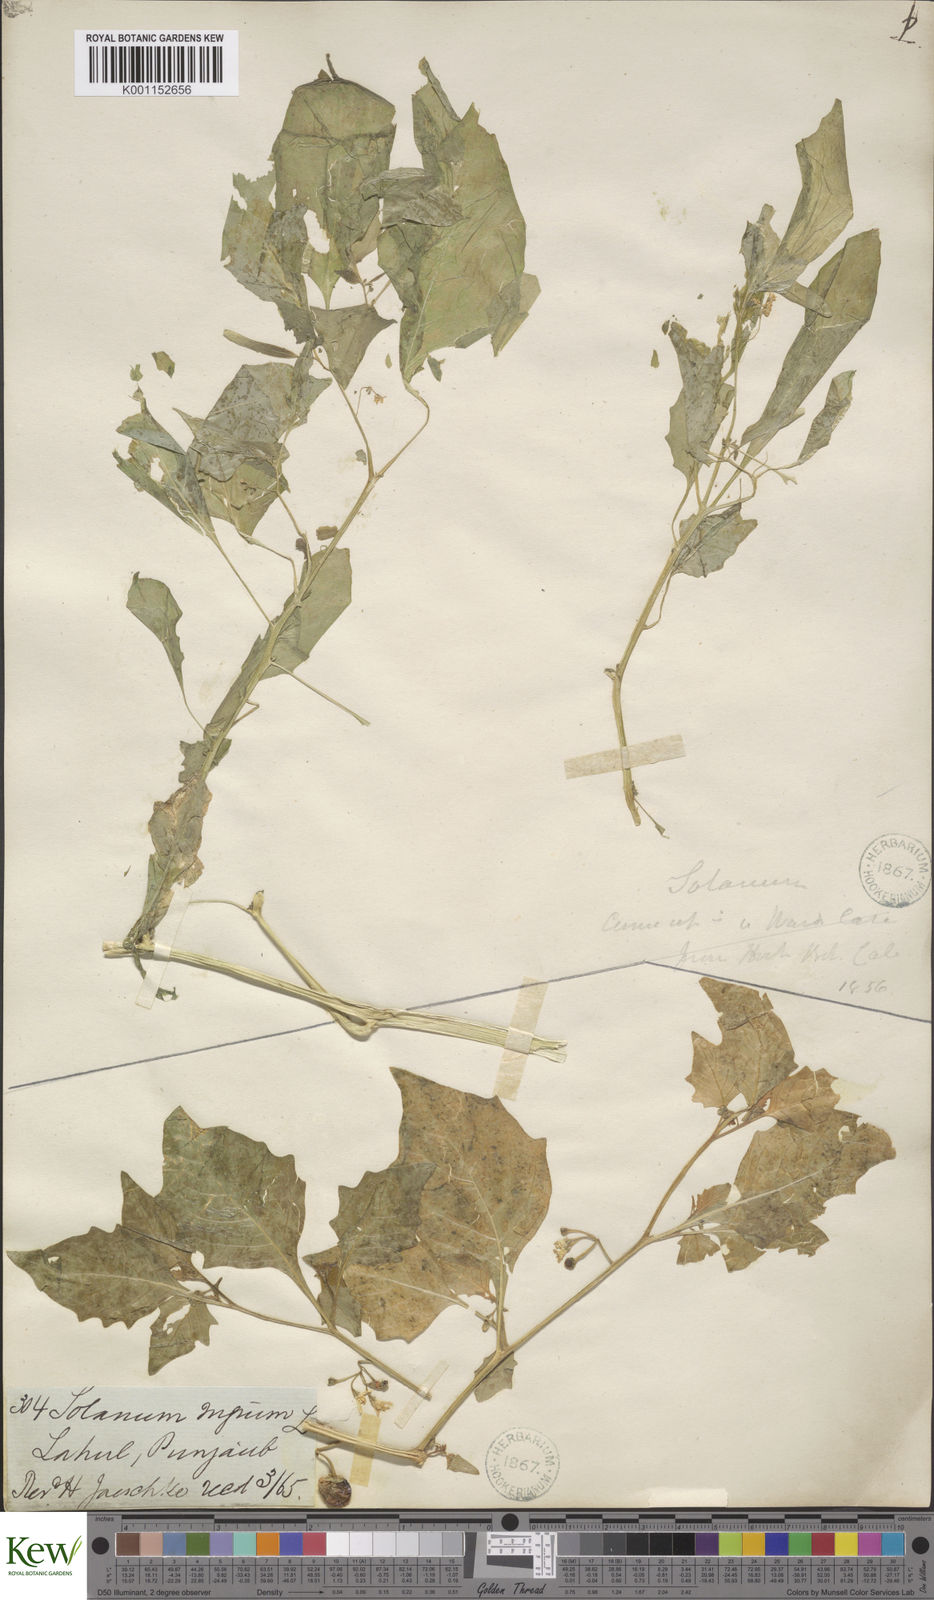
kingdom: Plantae
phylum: Tracheophyta
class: Magnoliopsida
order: Solanales
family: Solanaceae
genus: Solanum
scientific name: Solanum nigrum
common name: Black nightshade
